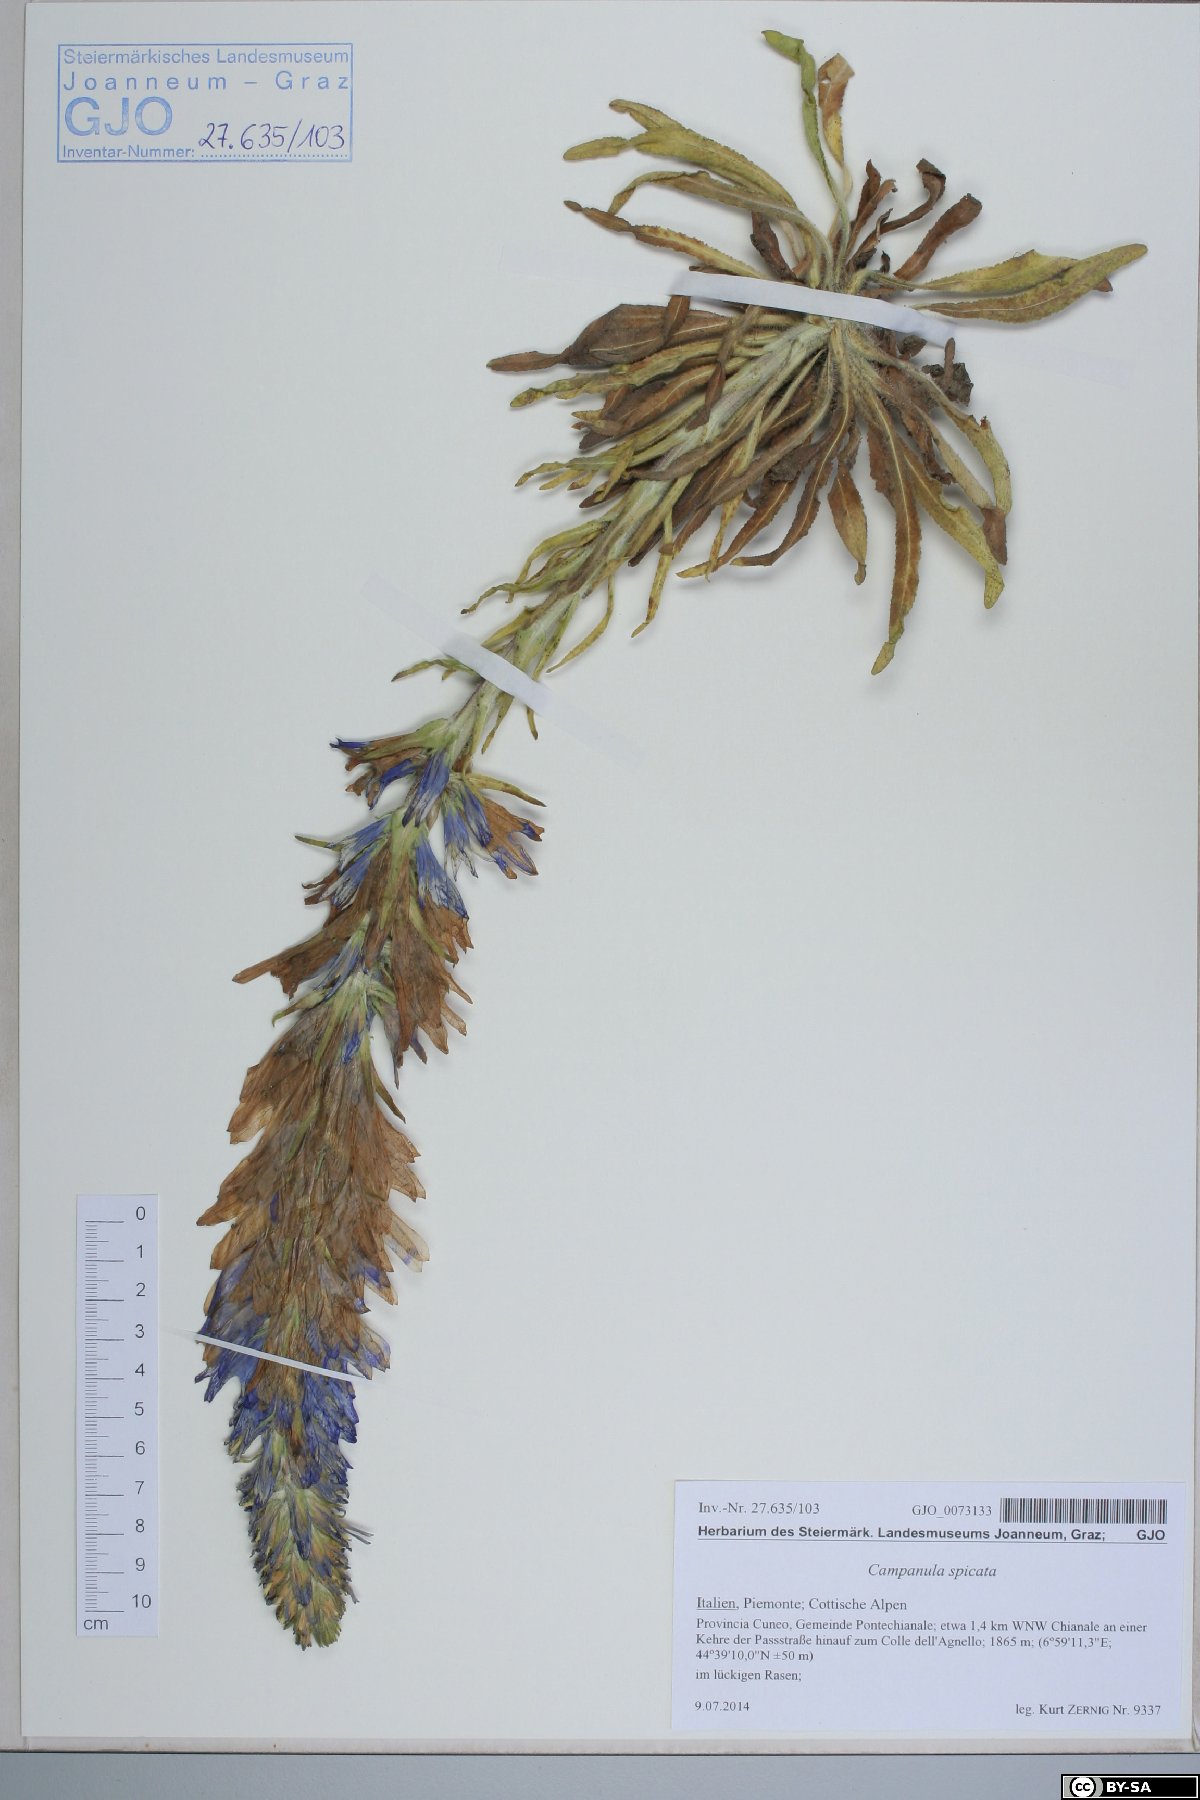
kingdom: Plantae
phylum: Tracheophyta
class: Magnoliopsida
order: Asterales
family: Campanulaceae
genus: Campanula
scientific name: Campanula spicata
